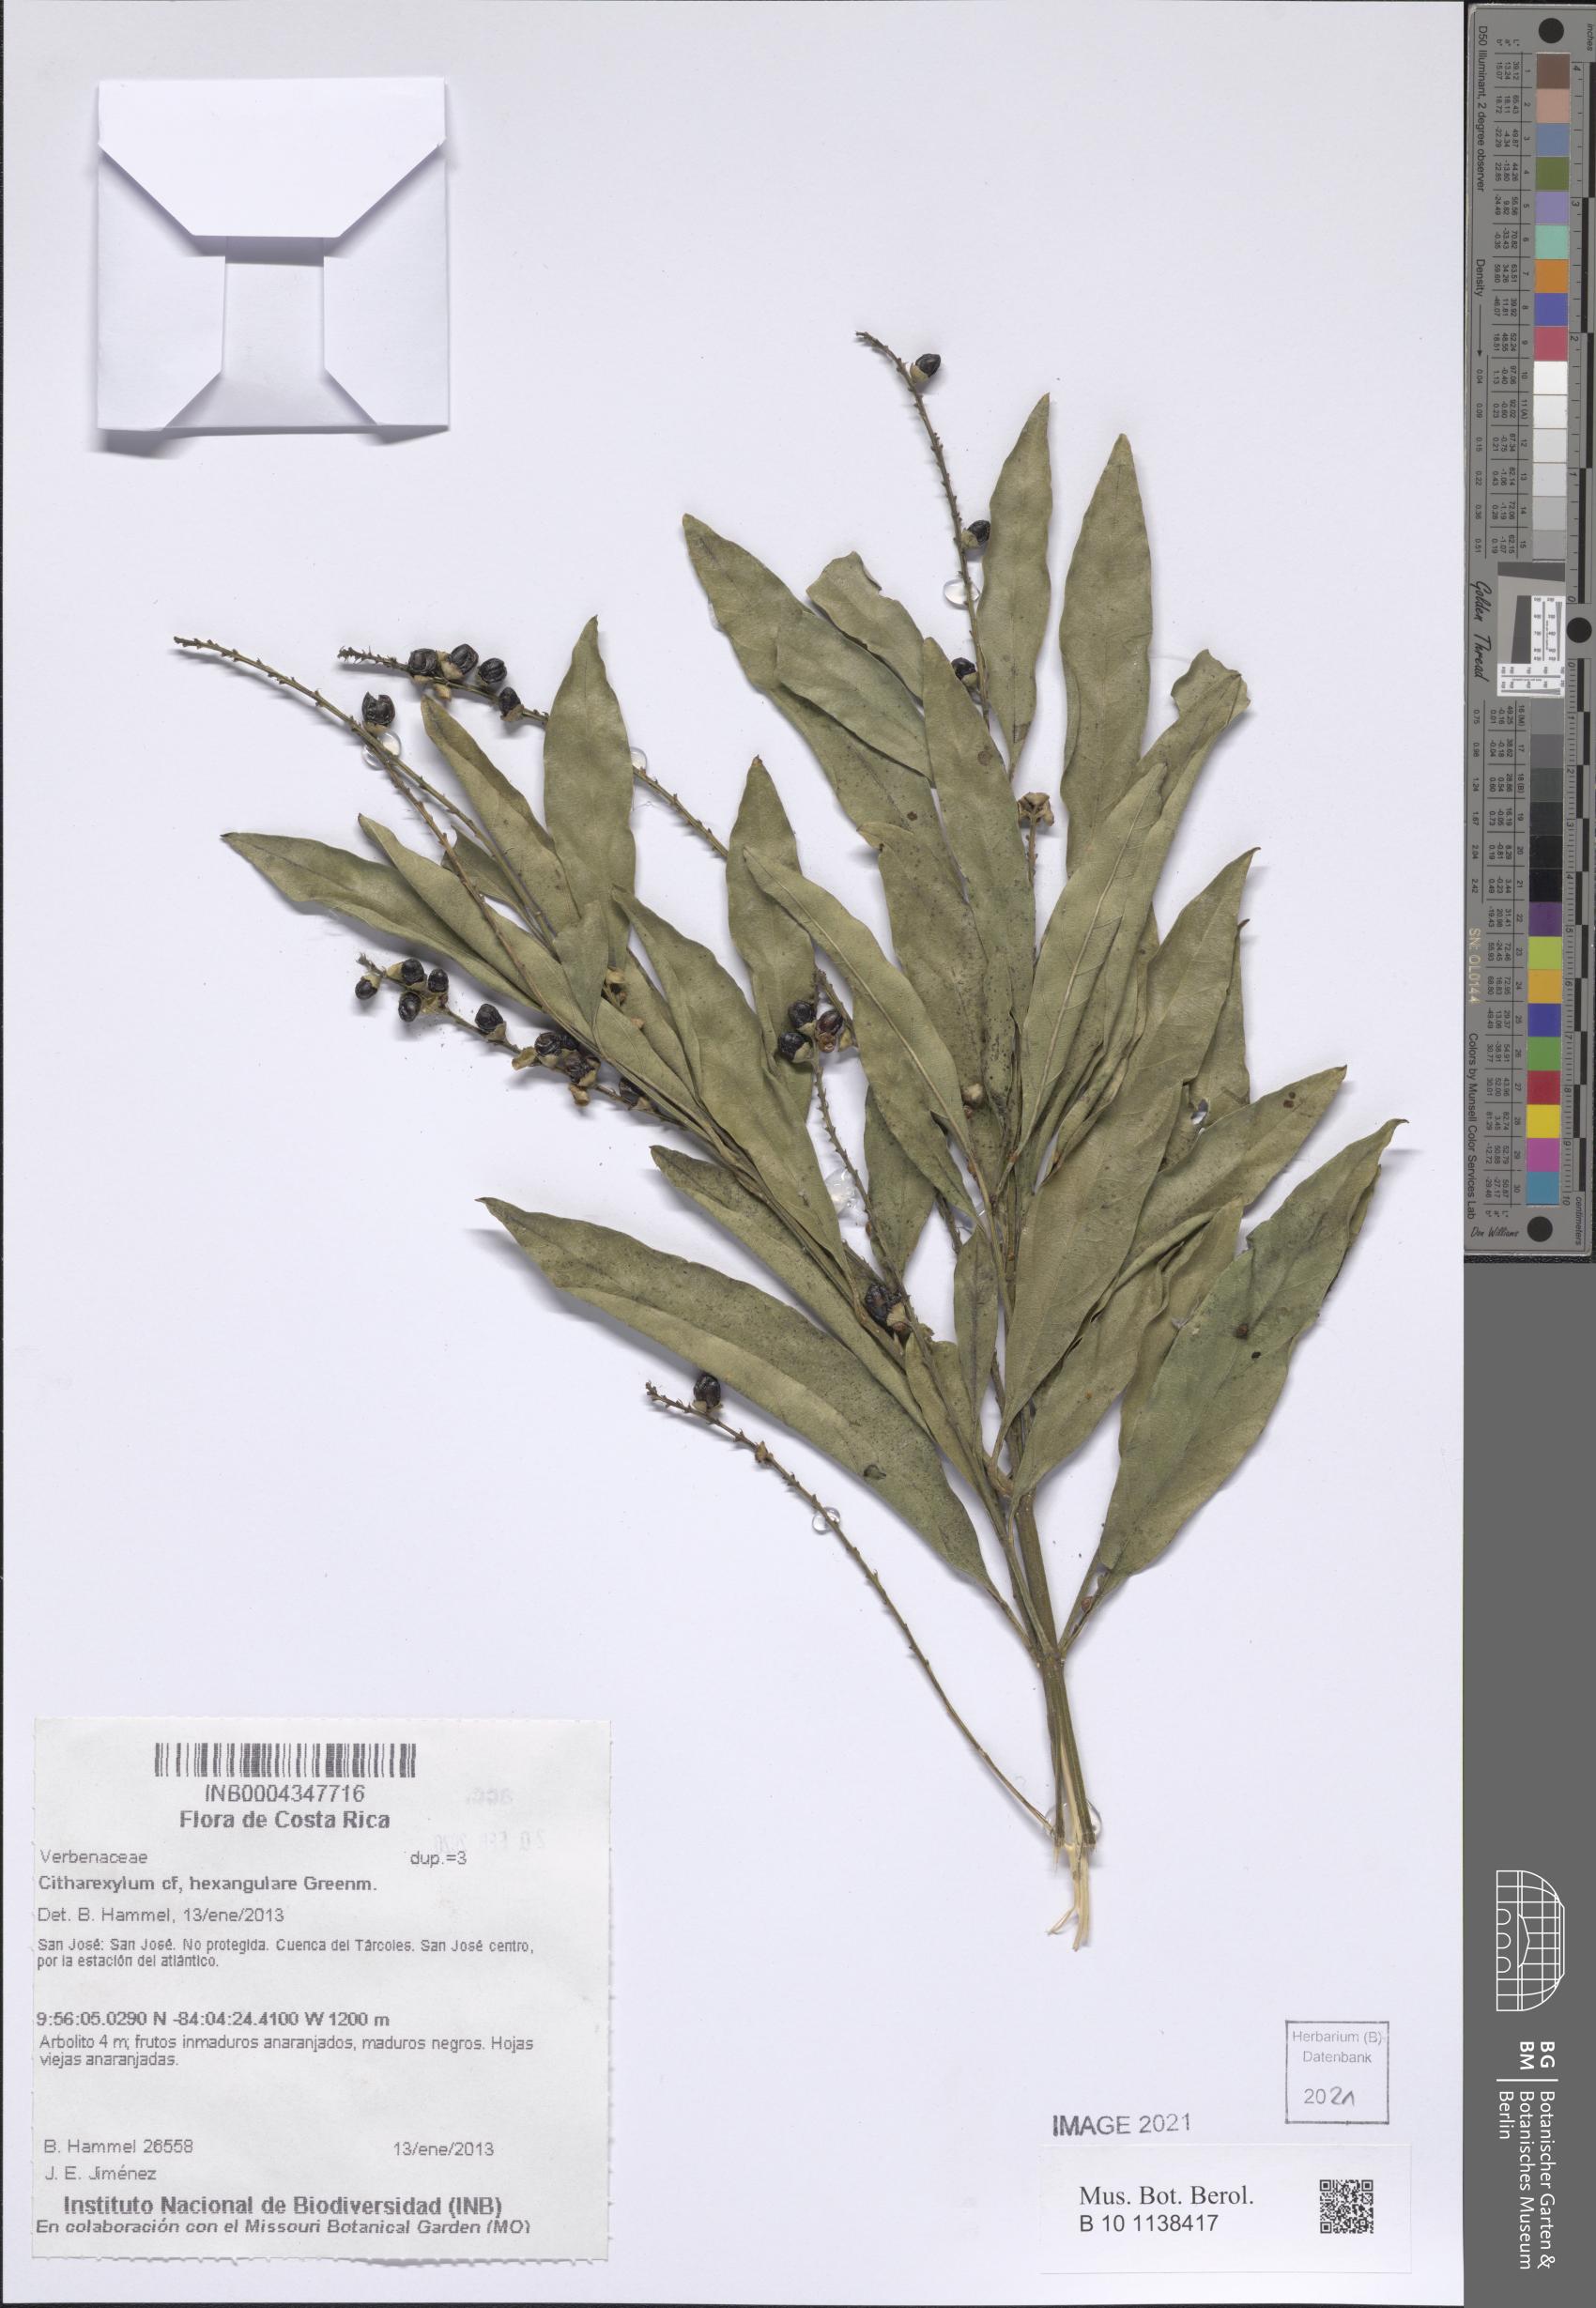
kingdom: Plantae
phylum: Tracheophyta
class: Magnoliopsida
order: Lamiales
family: Verbenaceae
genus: Citharexylum
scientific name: Citharexylum hexangulare
